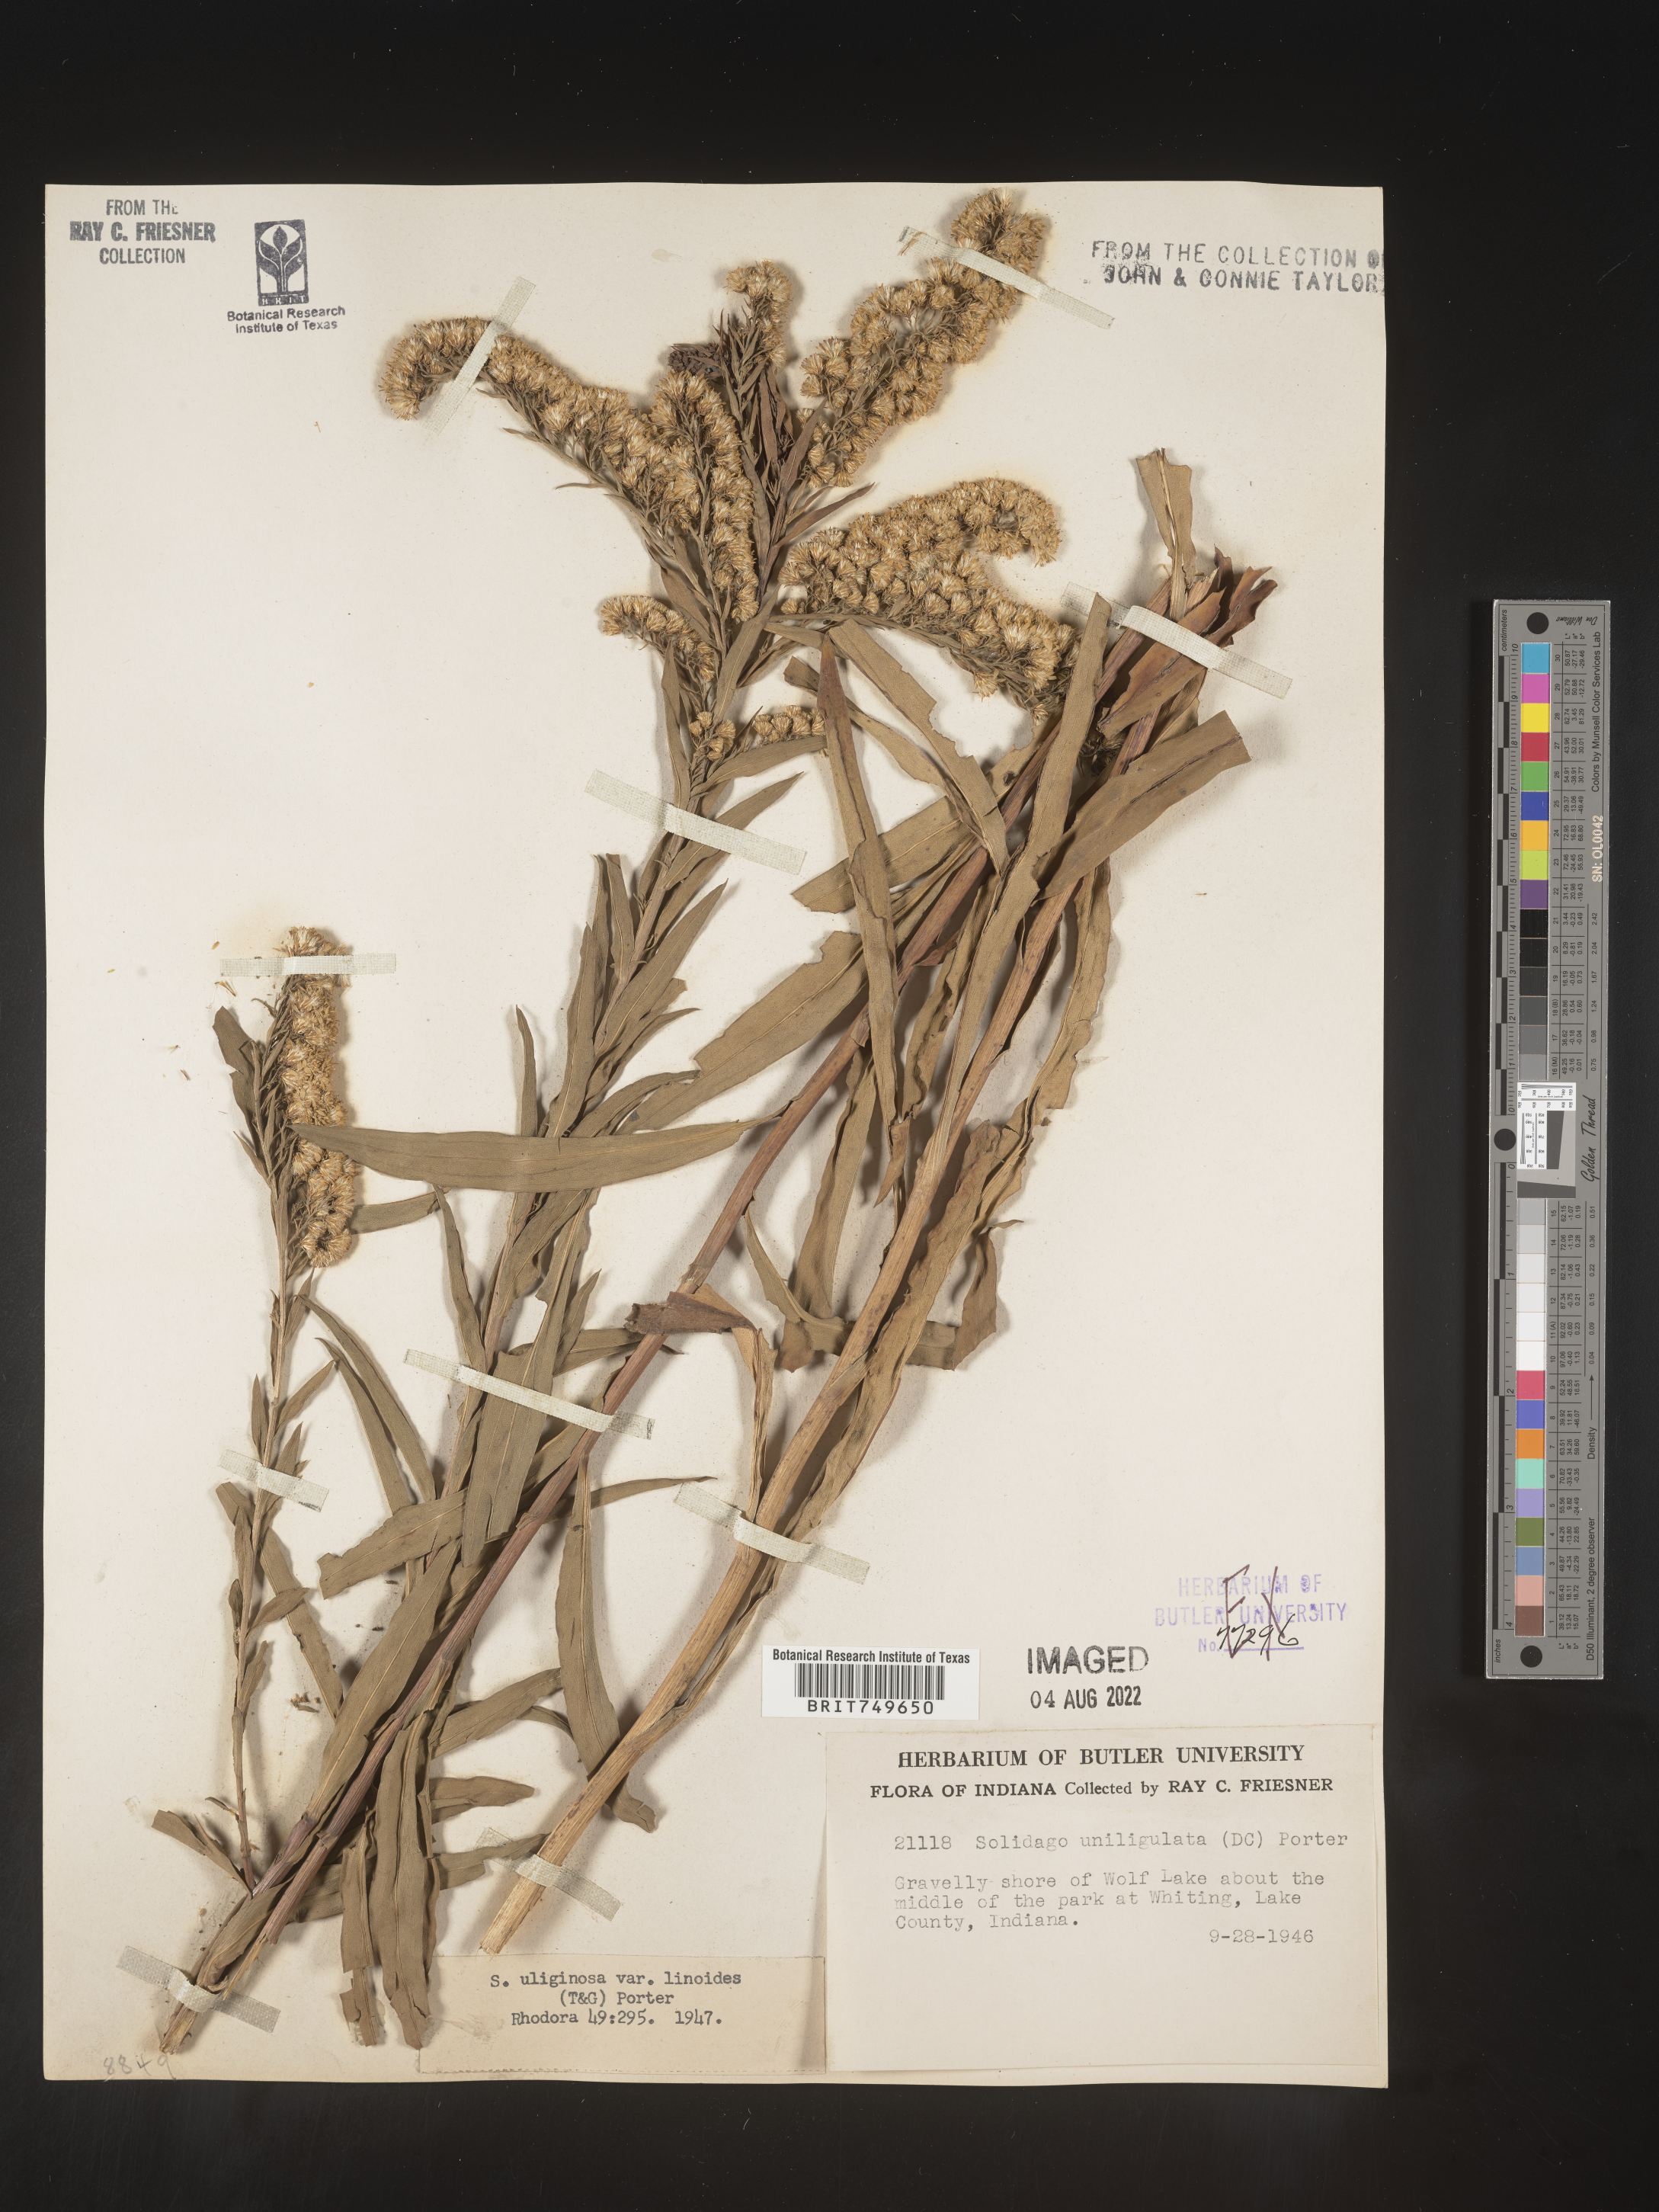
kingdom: Plantae
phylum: Tracheophyta
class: Magnoliopsida
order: Asterales
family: Asteraceae
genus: Solidago
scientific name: Solidago uliginosa
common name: Bog goldenrod
